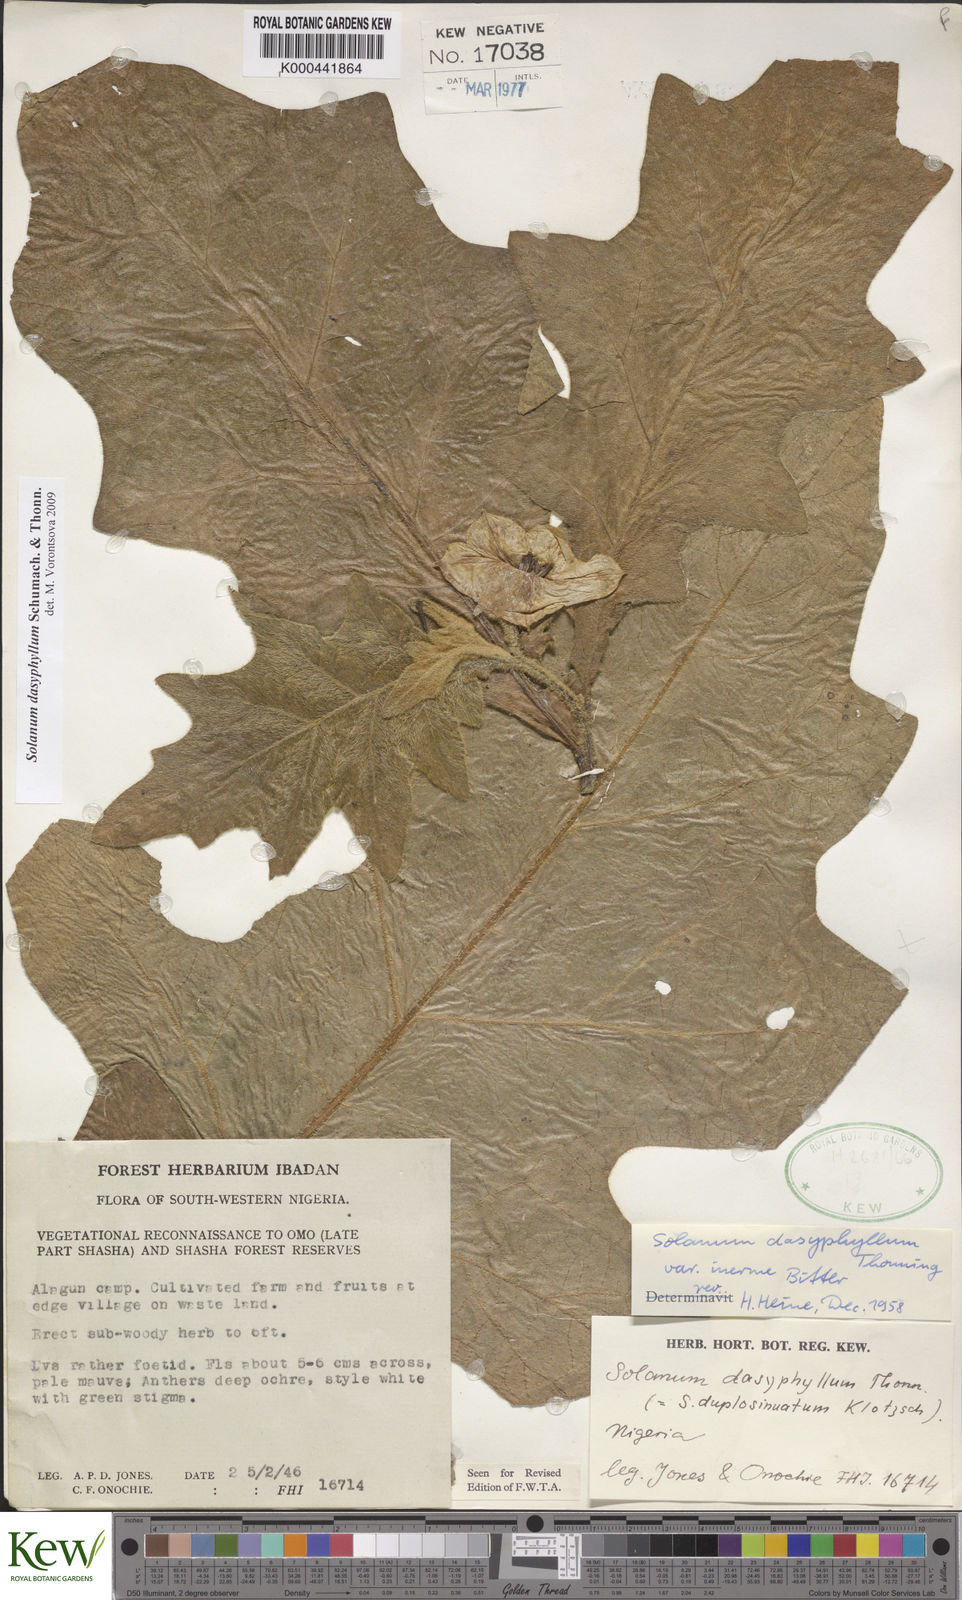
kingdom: Plantae
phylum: Tracheophyta
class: Magnoliopsida
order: Solanales
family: Solanaceae
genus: Solanum
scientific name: Solanum dasyphyllum
